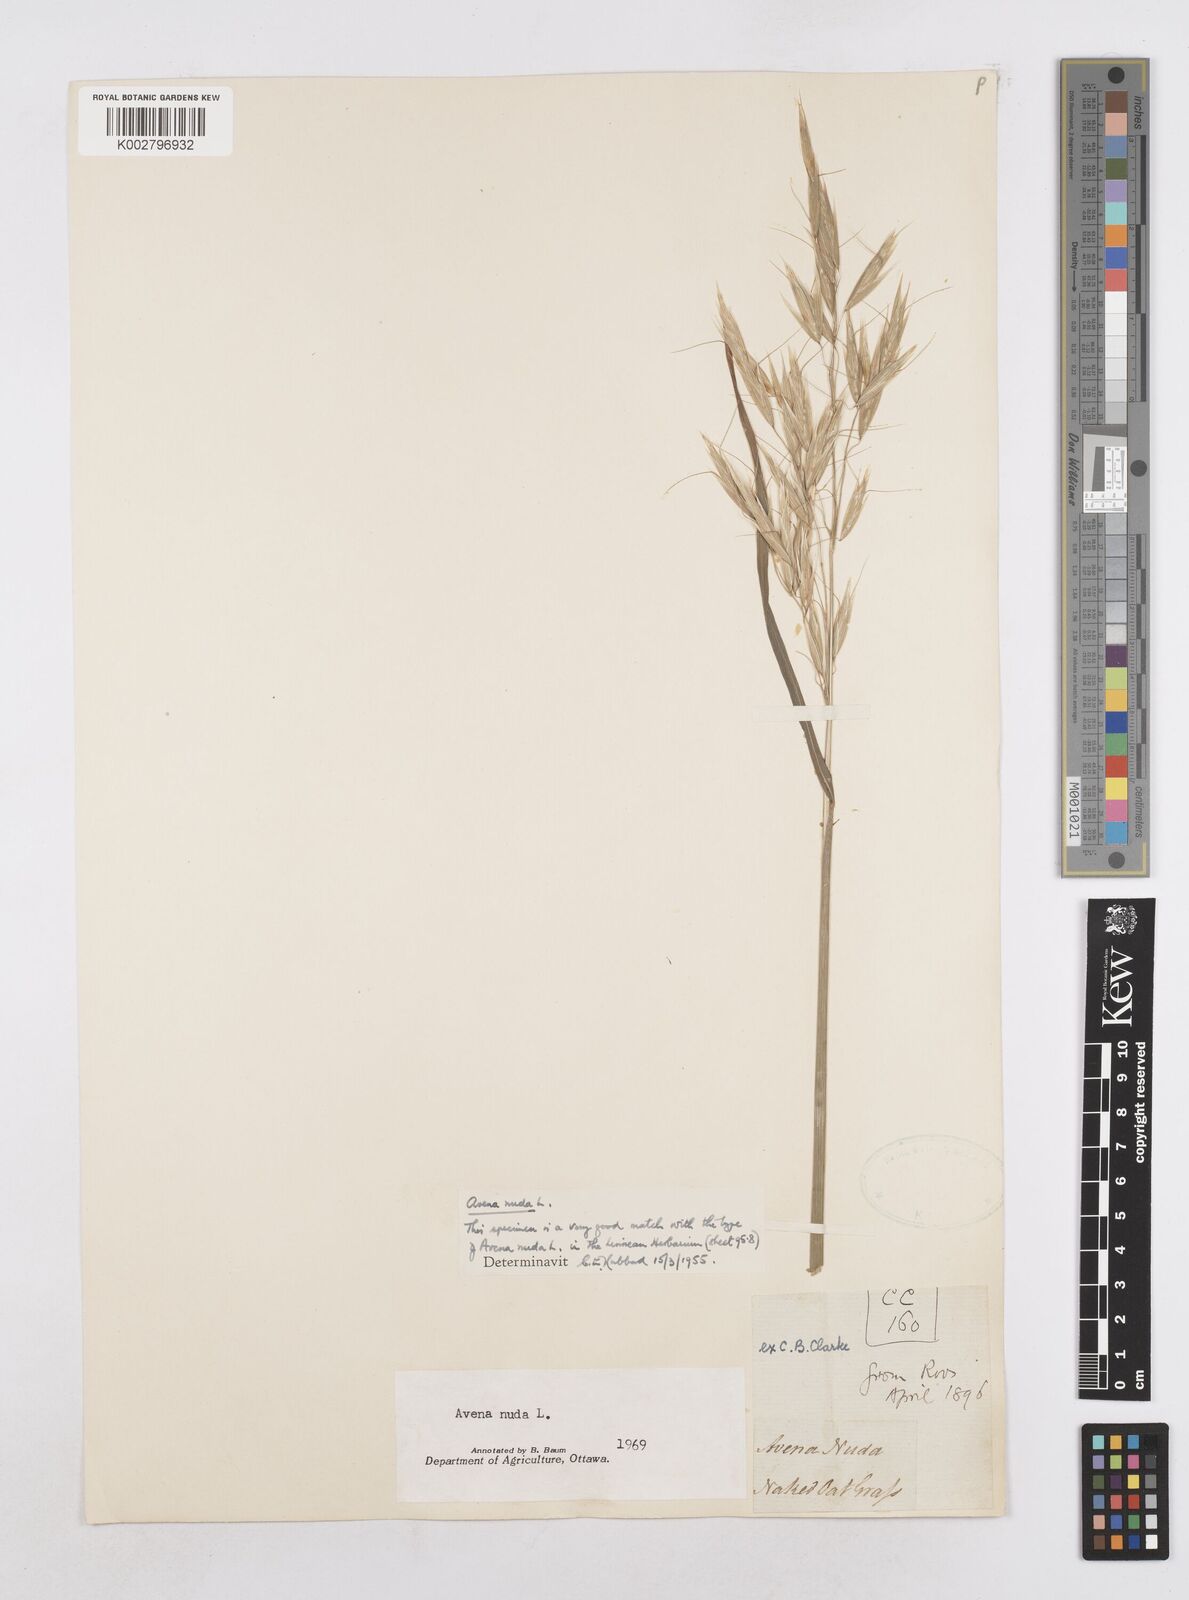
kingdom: Plantae
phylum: Tracheophyta
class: Liliopsida
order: Poales
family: Poaceae
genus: Avena
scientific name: Avena nuda
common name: Naked oat
